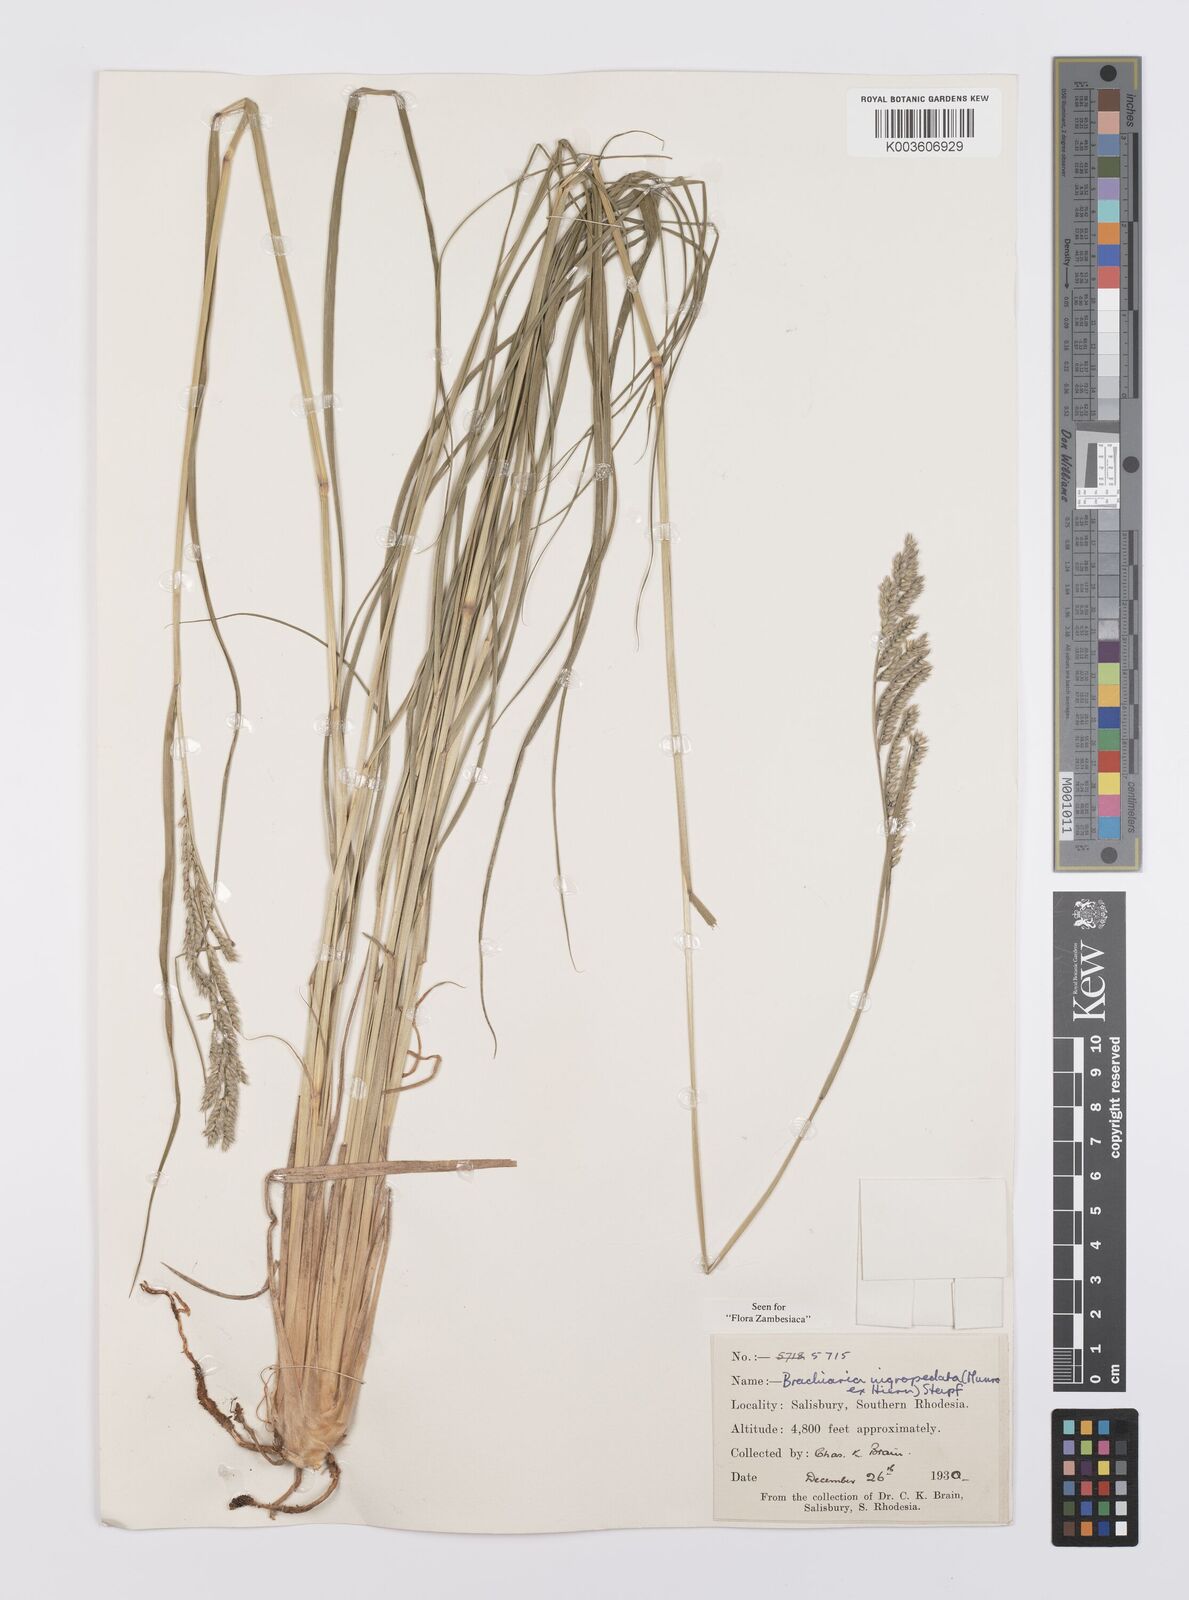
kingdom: Plantae
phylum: Tracheophyta
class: Liliopsida
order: Poales
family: Poaceae
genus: Urochloa
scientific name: Urochloa nigropedata
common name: Spotted signal grass
